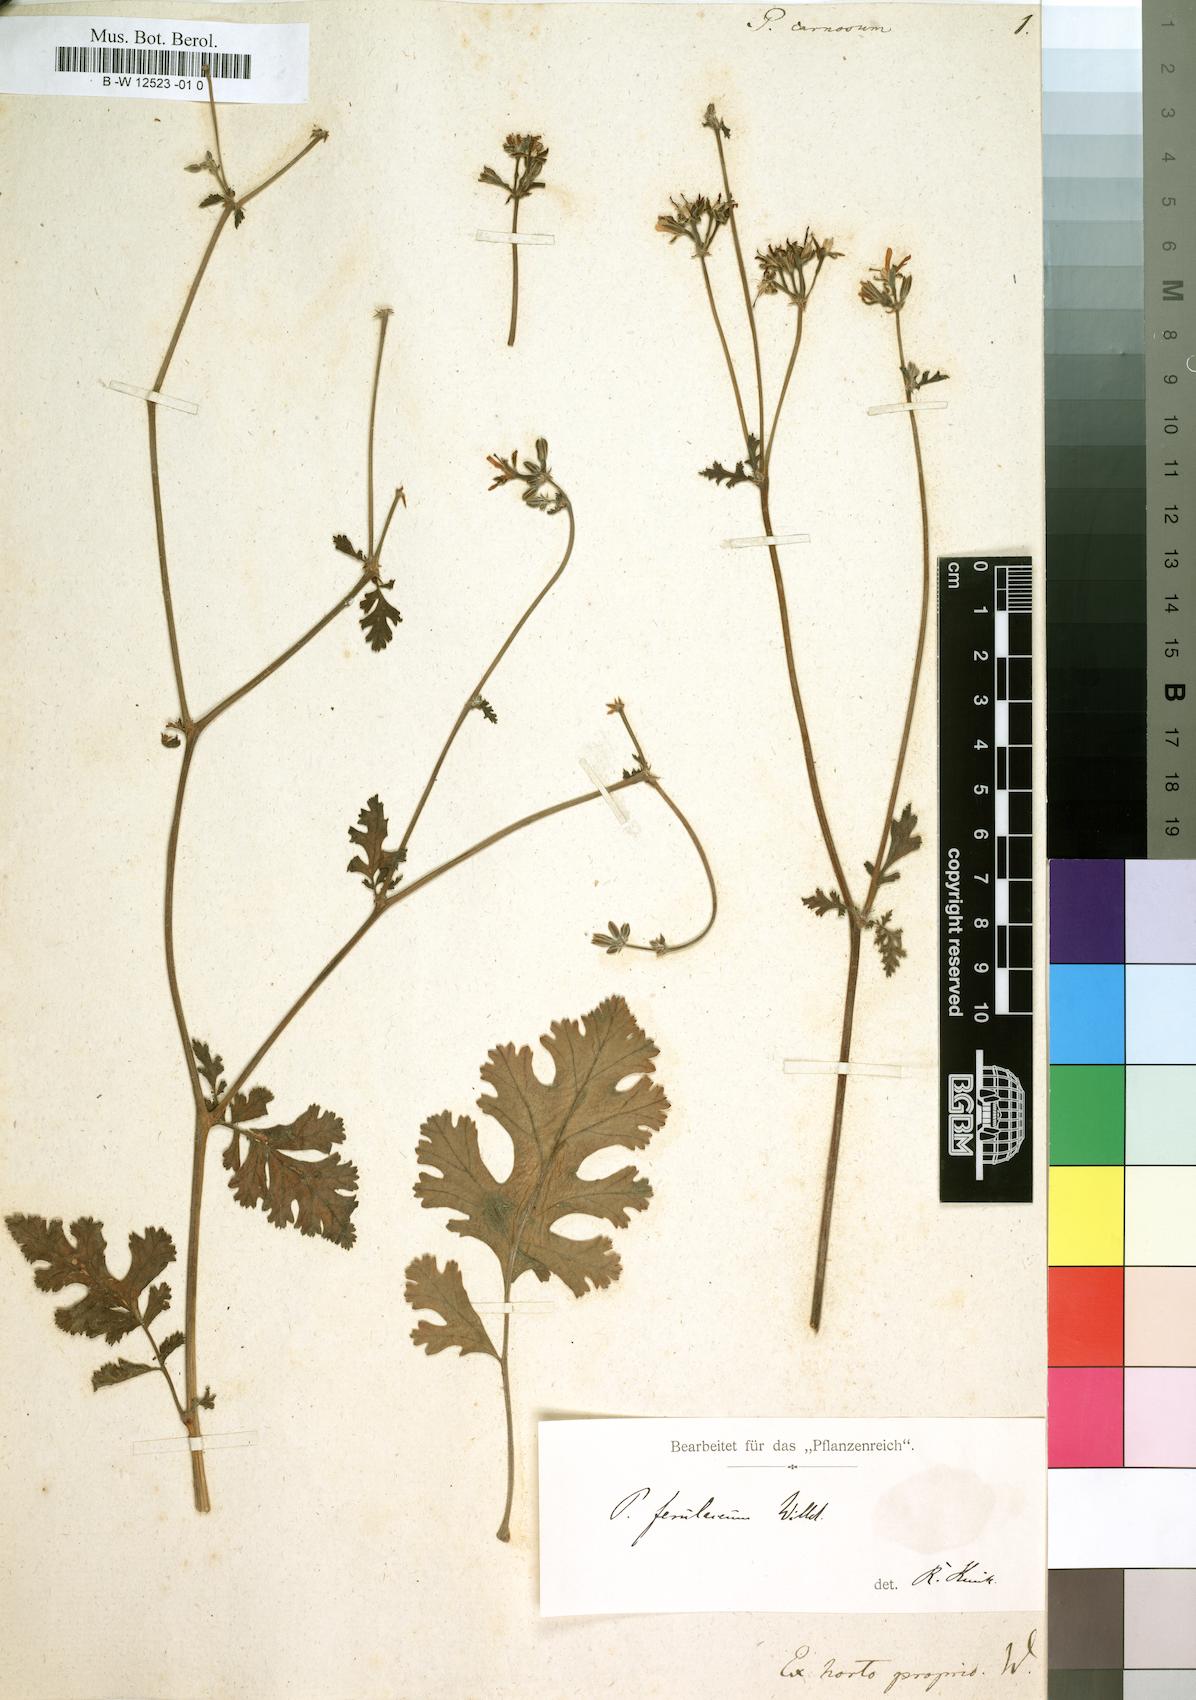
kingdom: Plantae
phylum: Tracheophyta
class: Magnoliopsida
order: Geraniales
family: Geraniaceae
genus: Pelargonium
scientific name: Pelargonium carnosum
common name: Fleshy-stalk pelargonium
